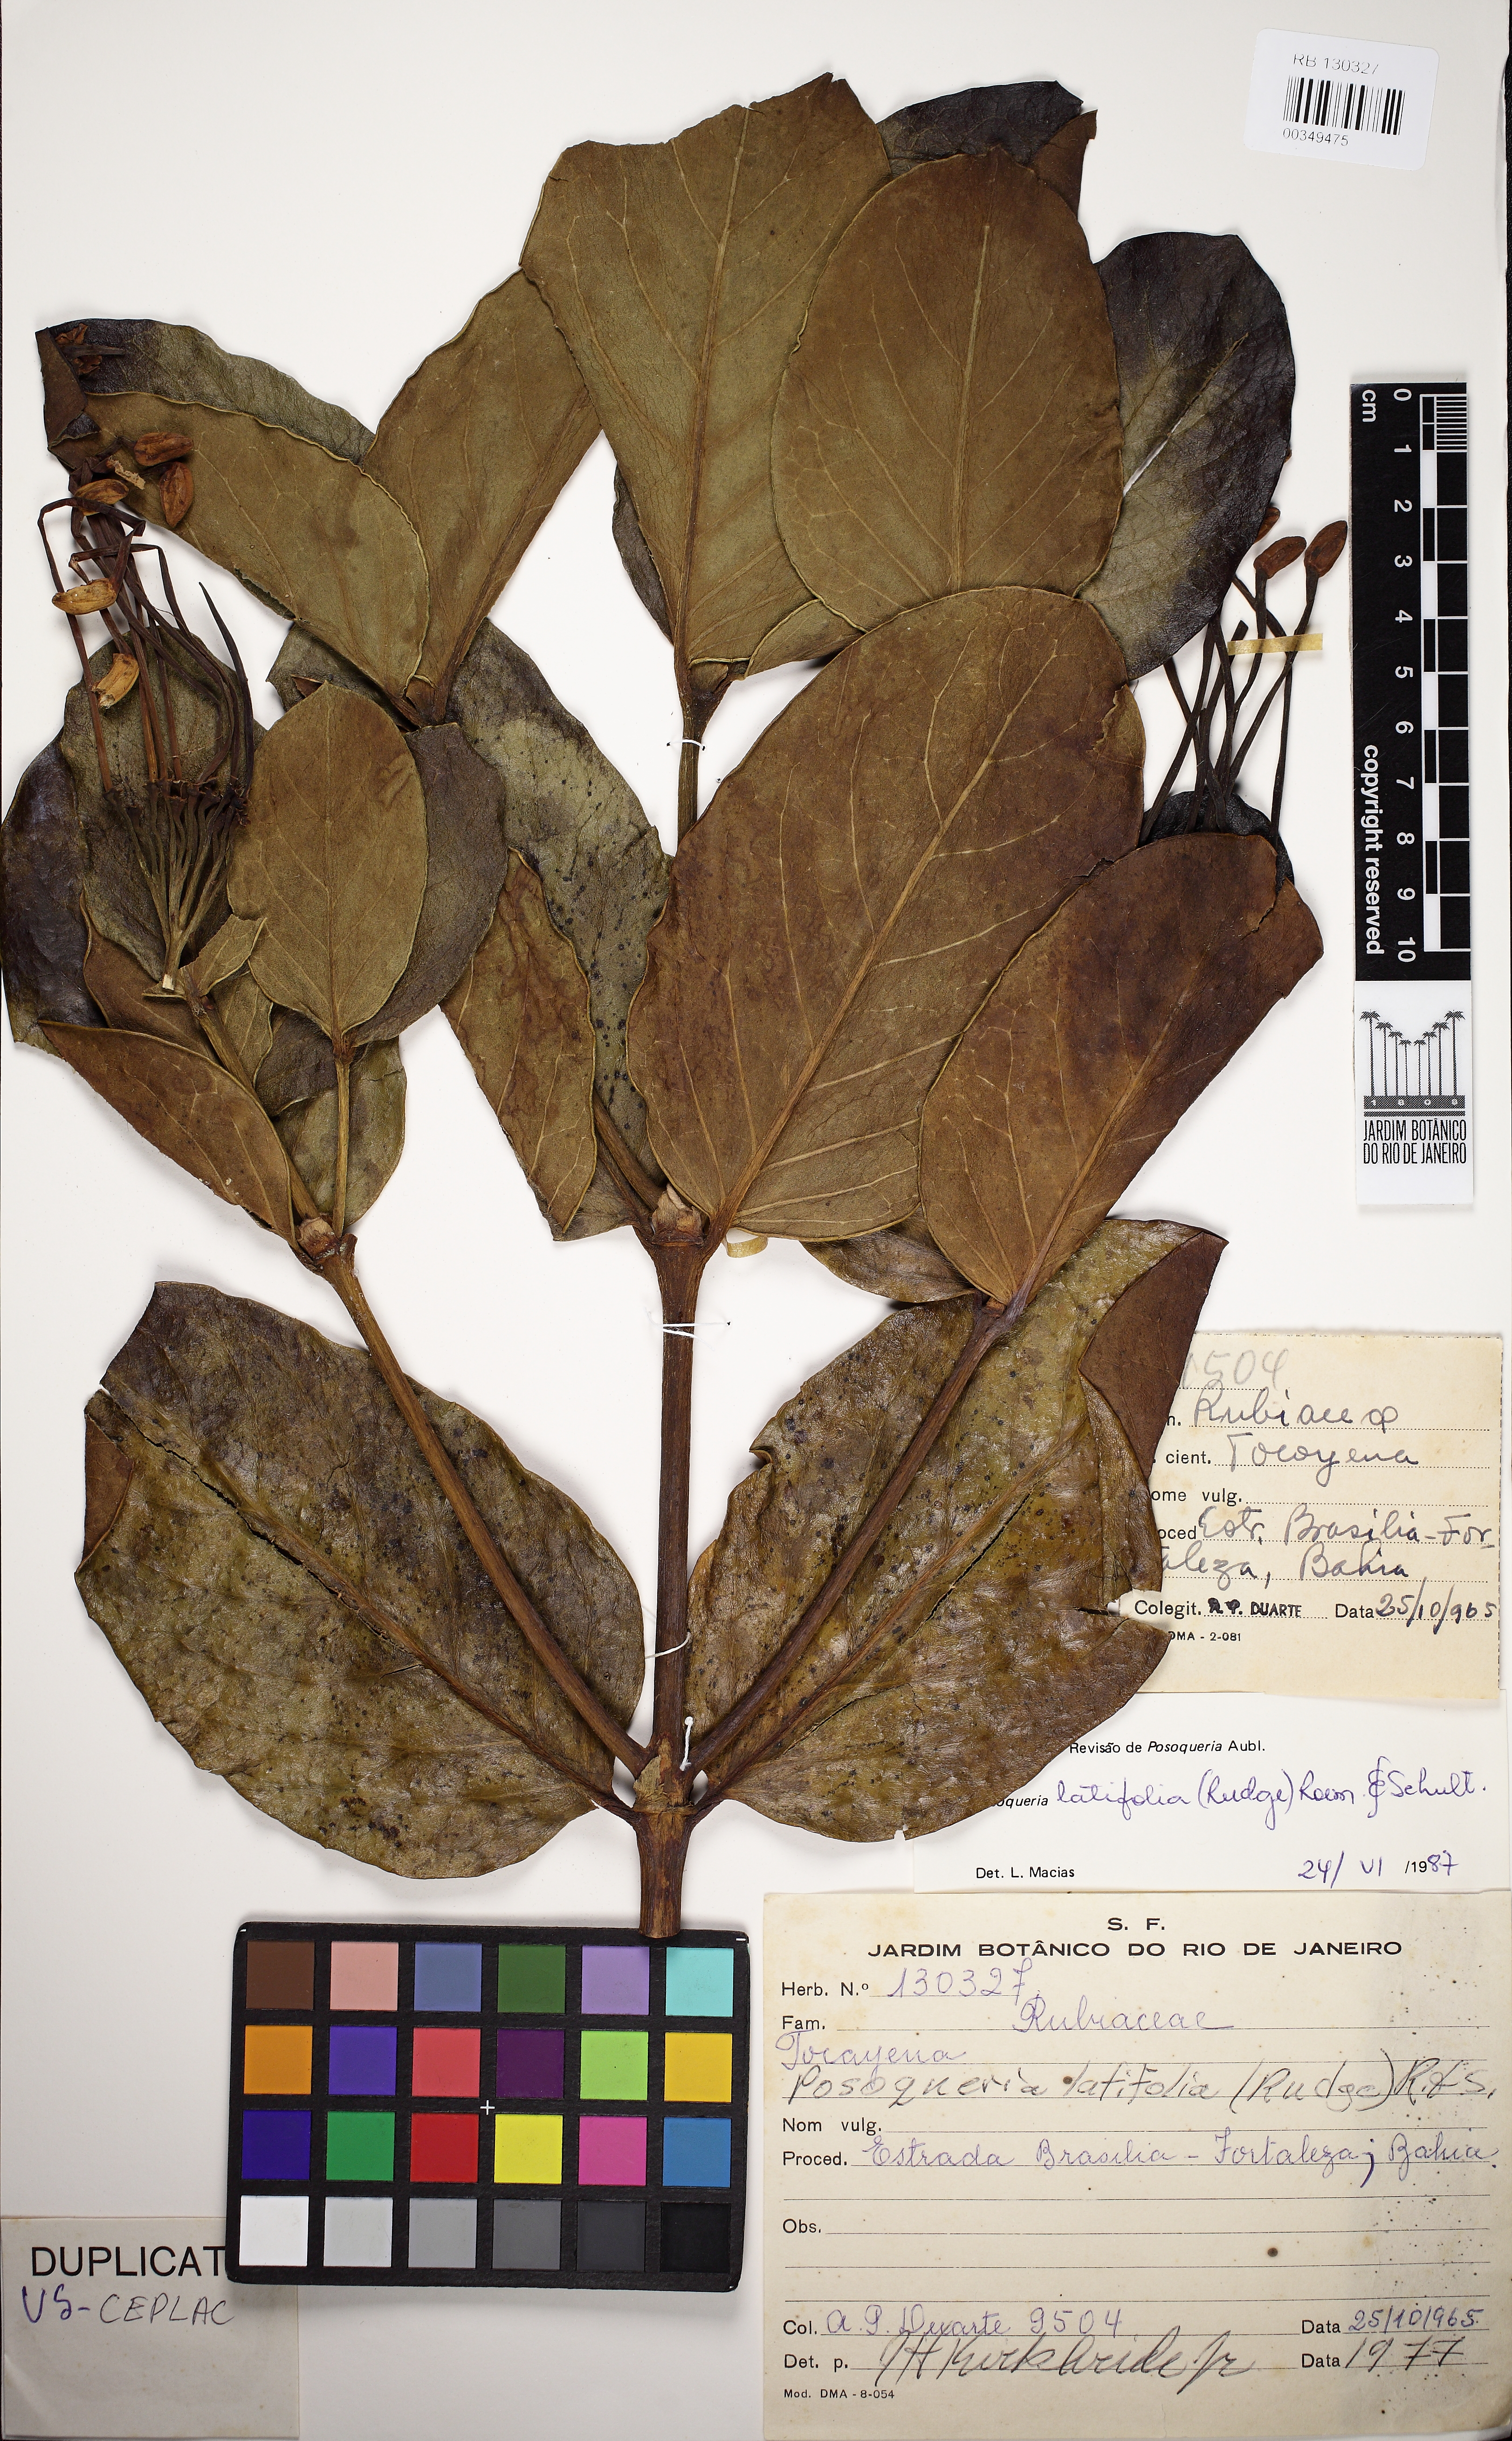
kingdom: Plantae
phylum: Tracheophyta
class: Magnoliopsida
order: Gentianales
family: Rubiaceae
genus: Posoqueria
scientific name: Posoqueria latifolia
